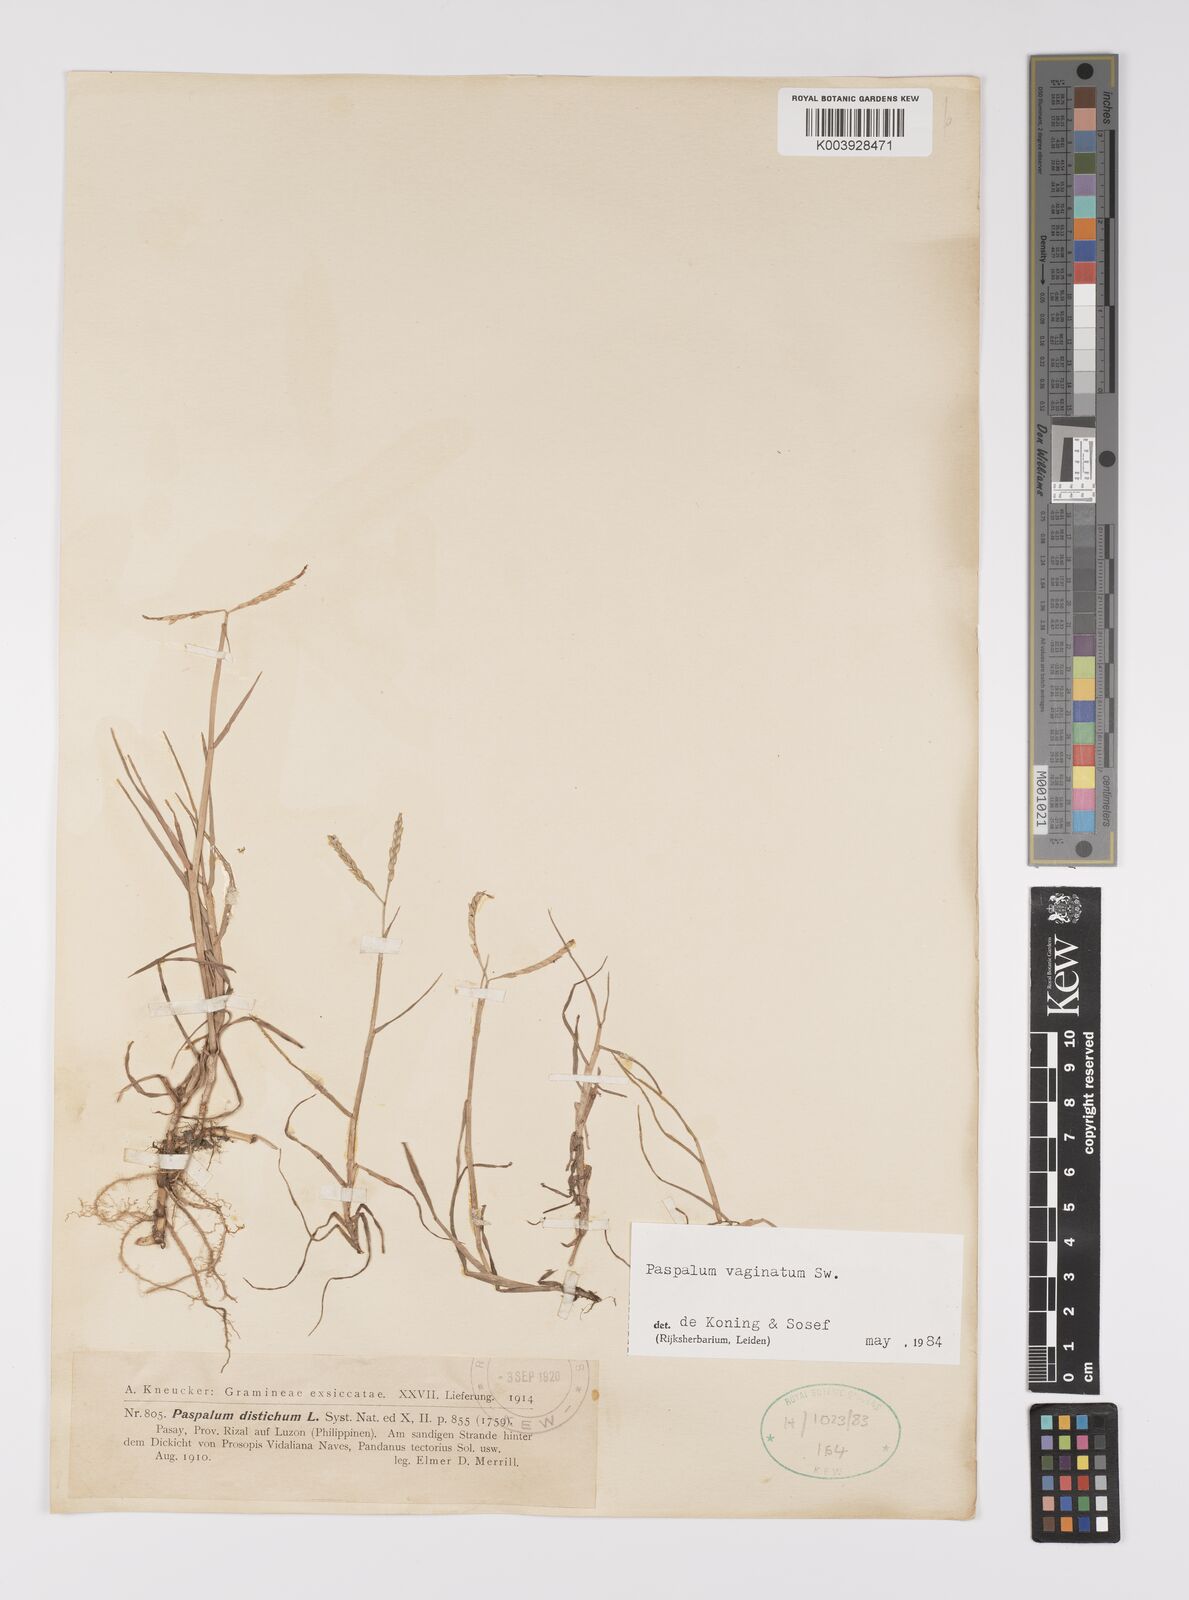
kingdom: Plantae
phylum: Tracheophyta
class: Liliopsida
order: Poales
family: Poaceae
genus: Paspalum
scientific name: Paspalum vaginatum
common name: Seashore paspalum
